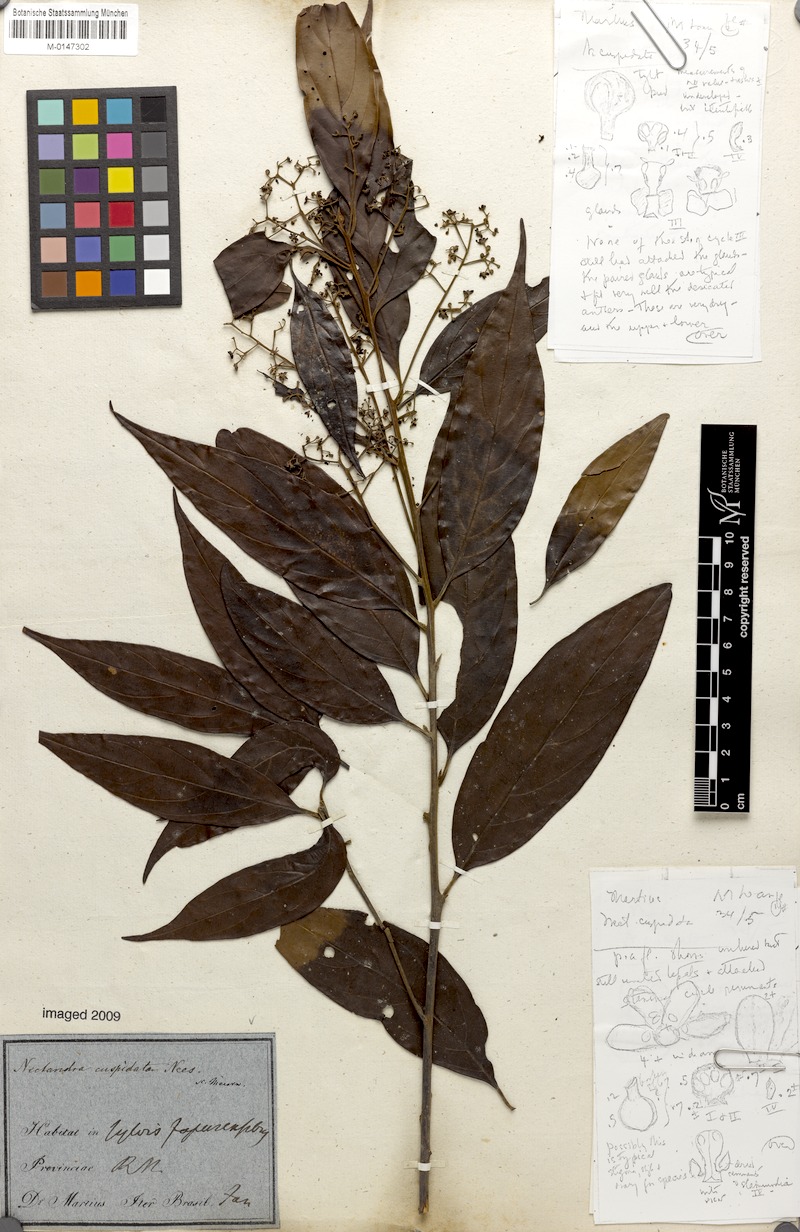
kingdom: Plantae
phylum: Tracheophyta
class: Magnoliopsida
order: Laurales
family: Lauraceae
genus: Nectandra
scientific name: Nectandra cuspidata
